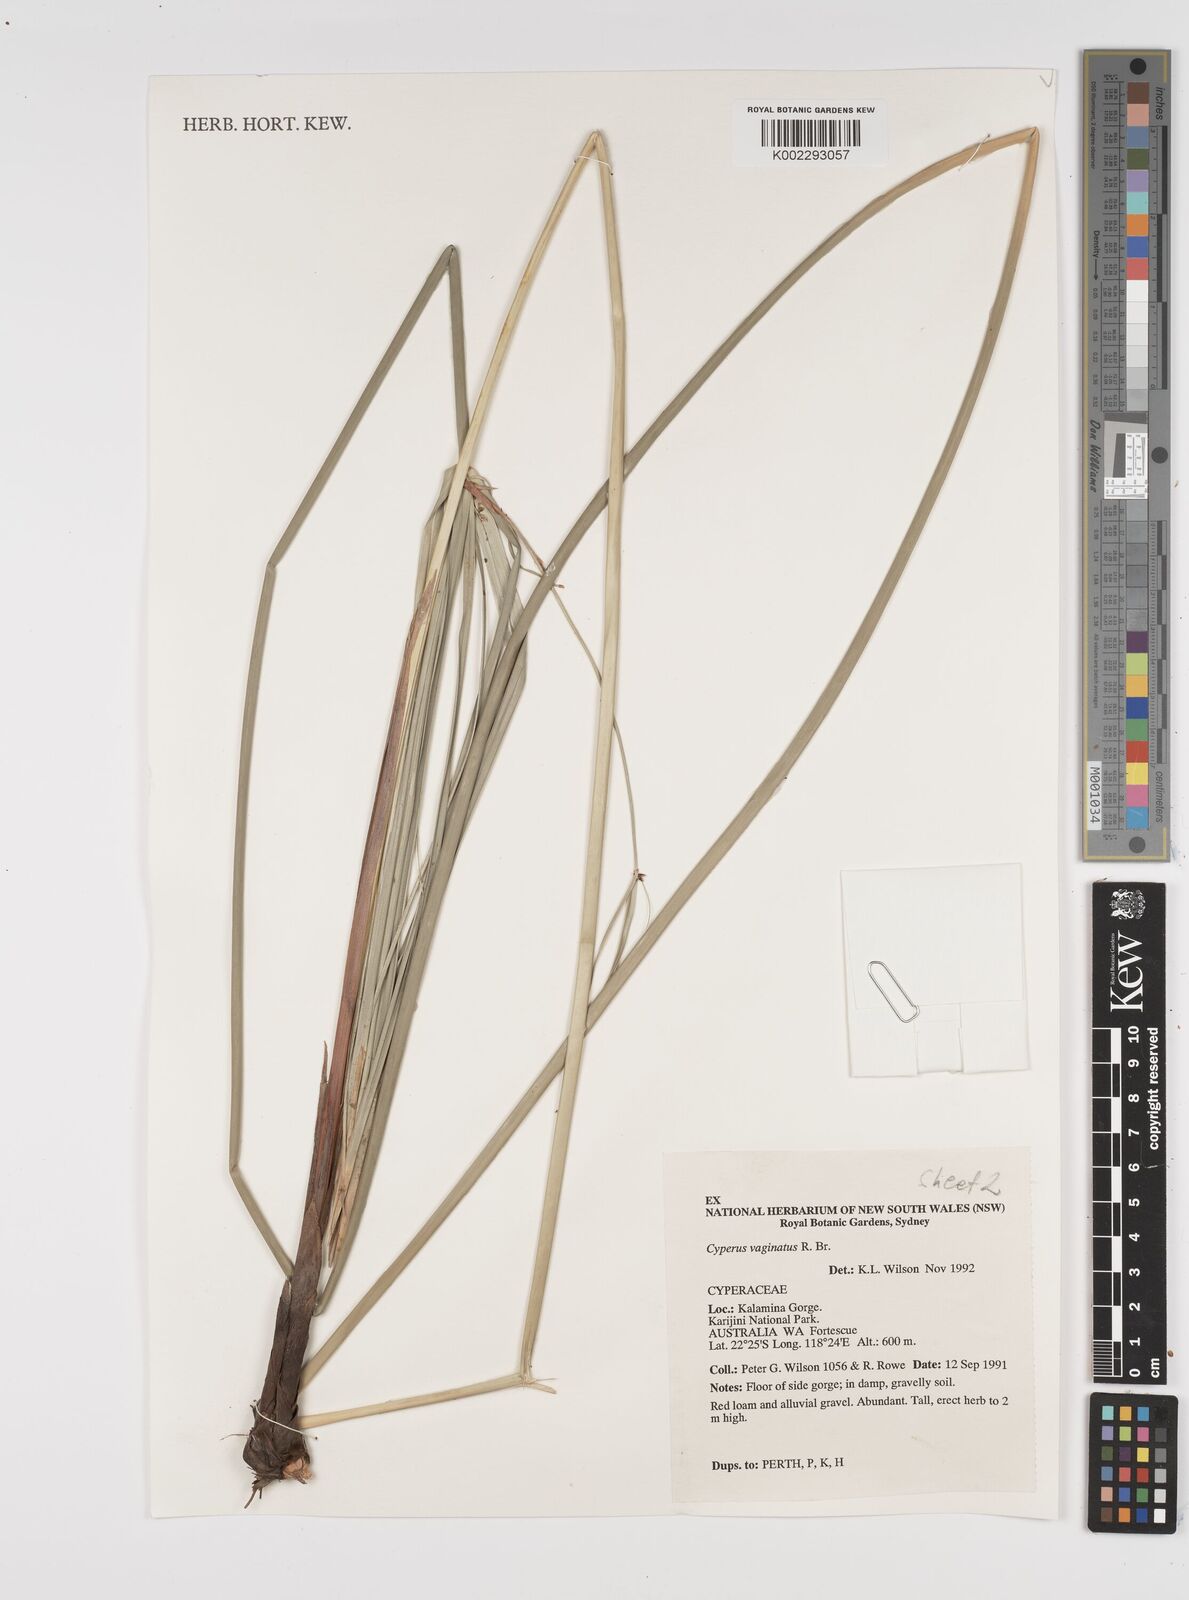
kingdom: Plantae
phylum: Tracheophyta
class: Liliopsida
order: Poales
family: Cyperaceae
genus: Cyperus
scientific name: Cyperus vaginatus
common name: Stiff-leaved flat-sedge
